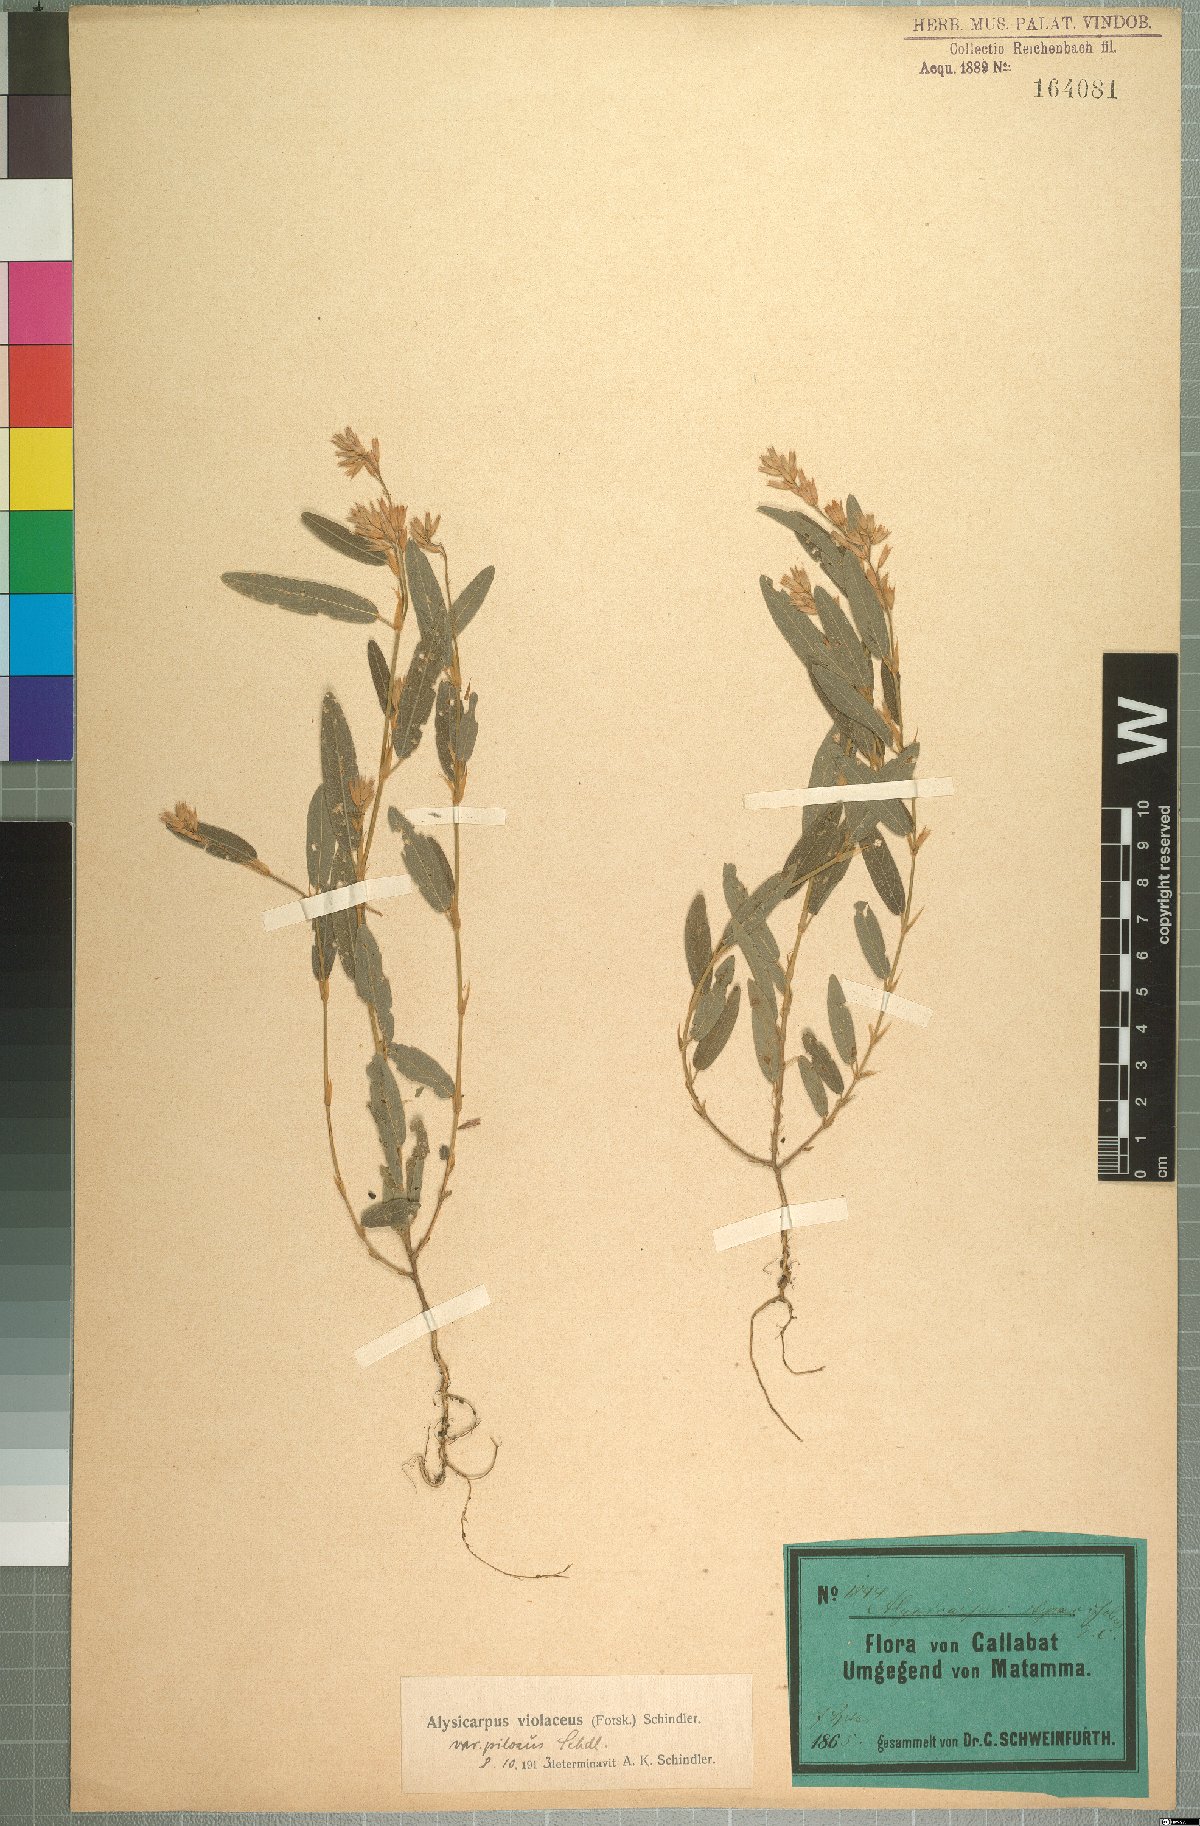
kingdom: Plantae
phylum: Tracheophyta
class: Magnoliopsida
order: Fabales
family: Fabaceae
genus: Alysicarpus
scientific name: Alysicarpus rugosus
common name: Red moneywort
